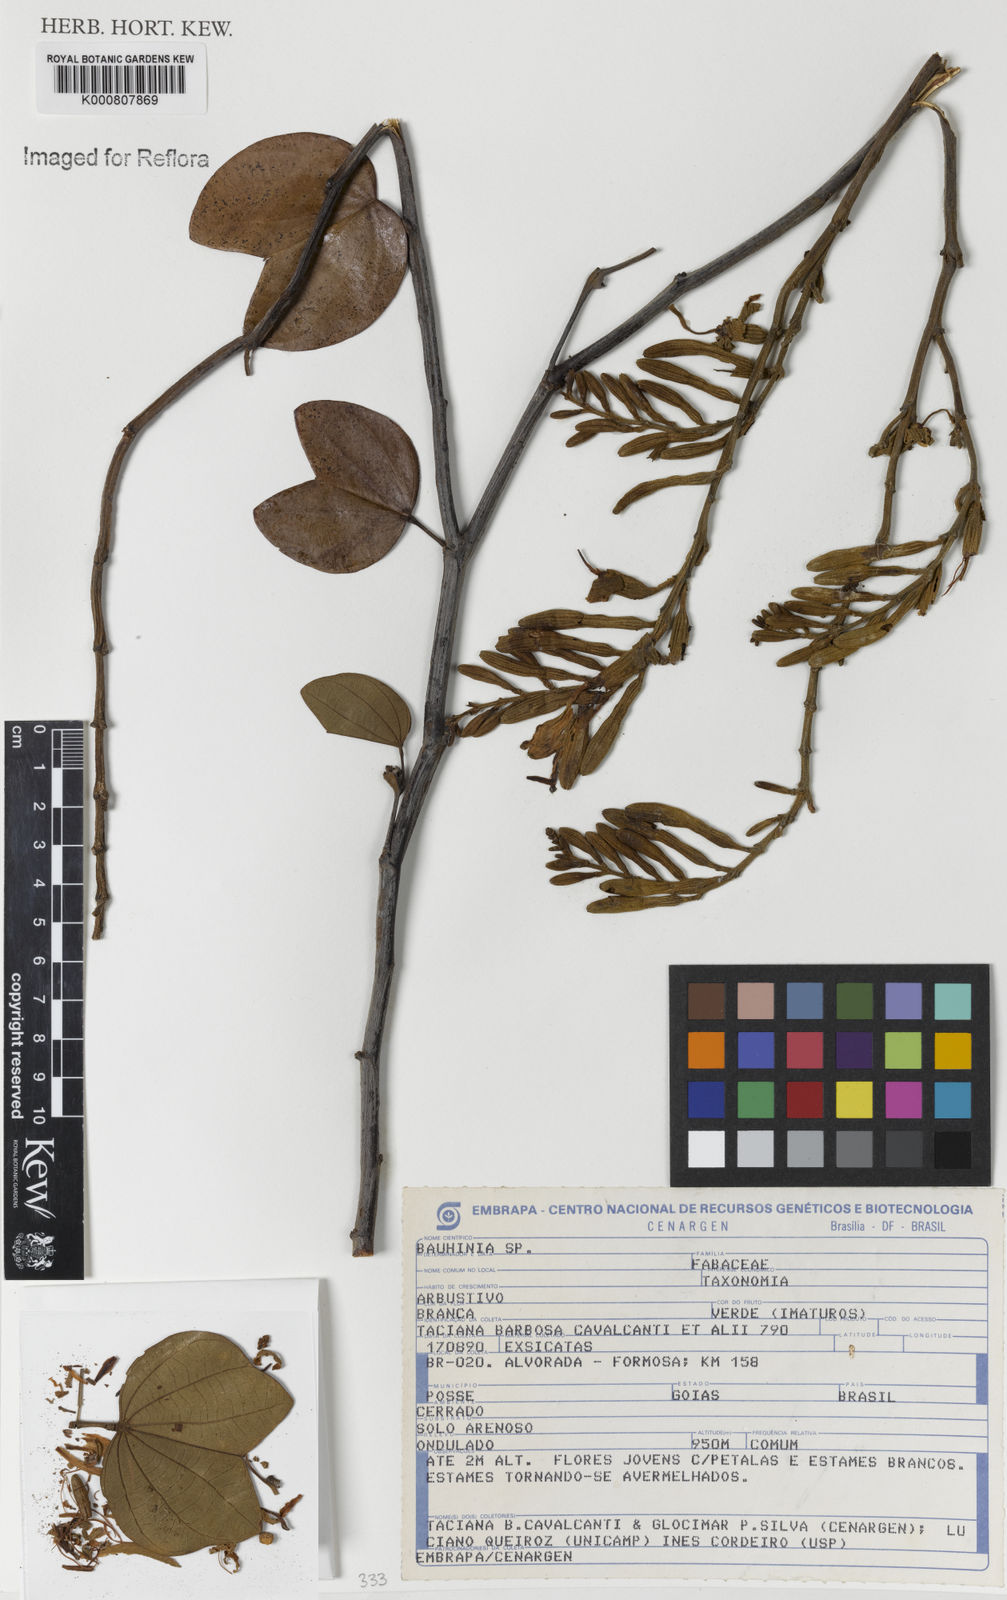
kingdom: Plantae
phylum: Tracheophyta
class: Magnoliopsida
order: Fabales
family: Fabaceae
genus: Bauhinia
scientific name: Bauhinia
